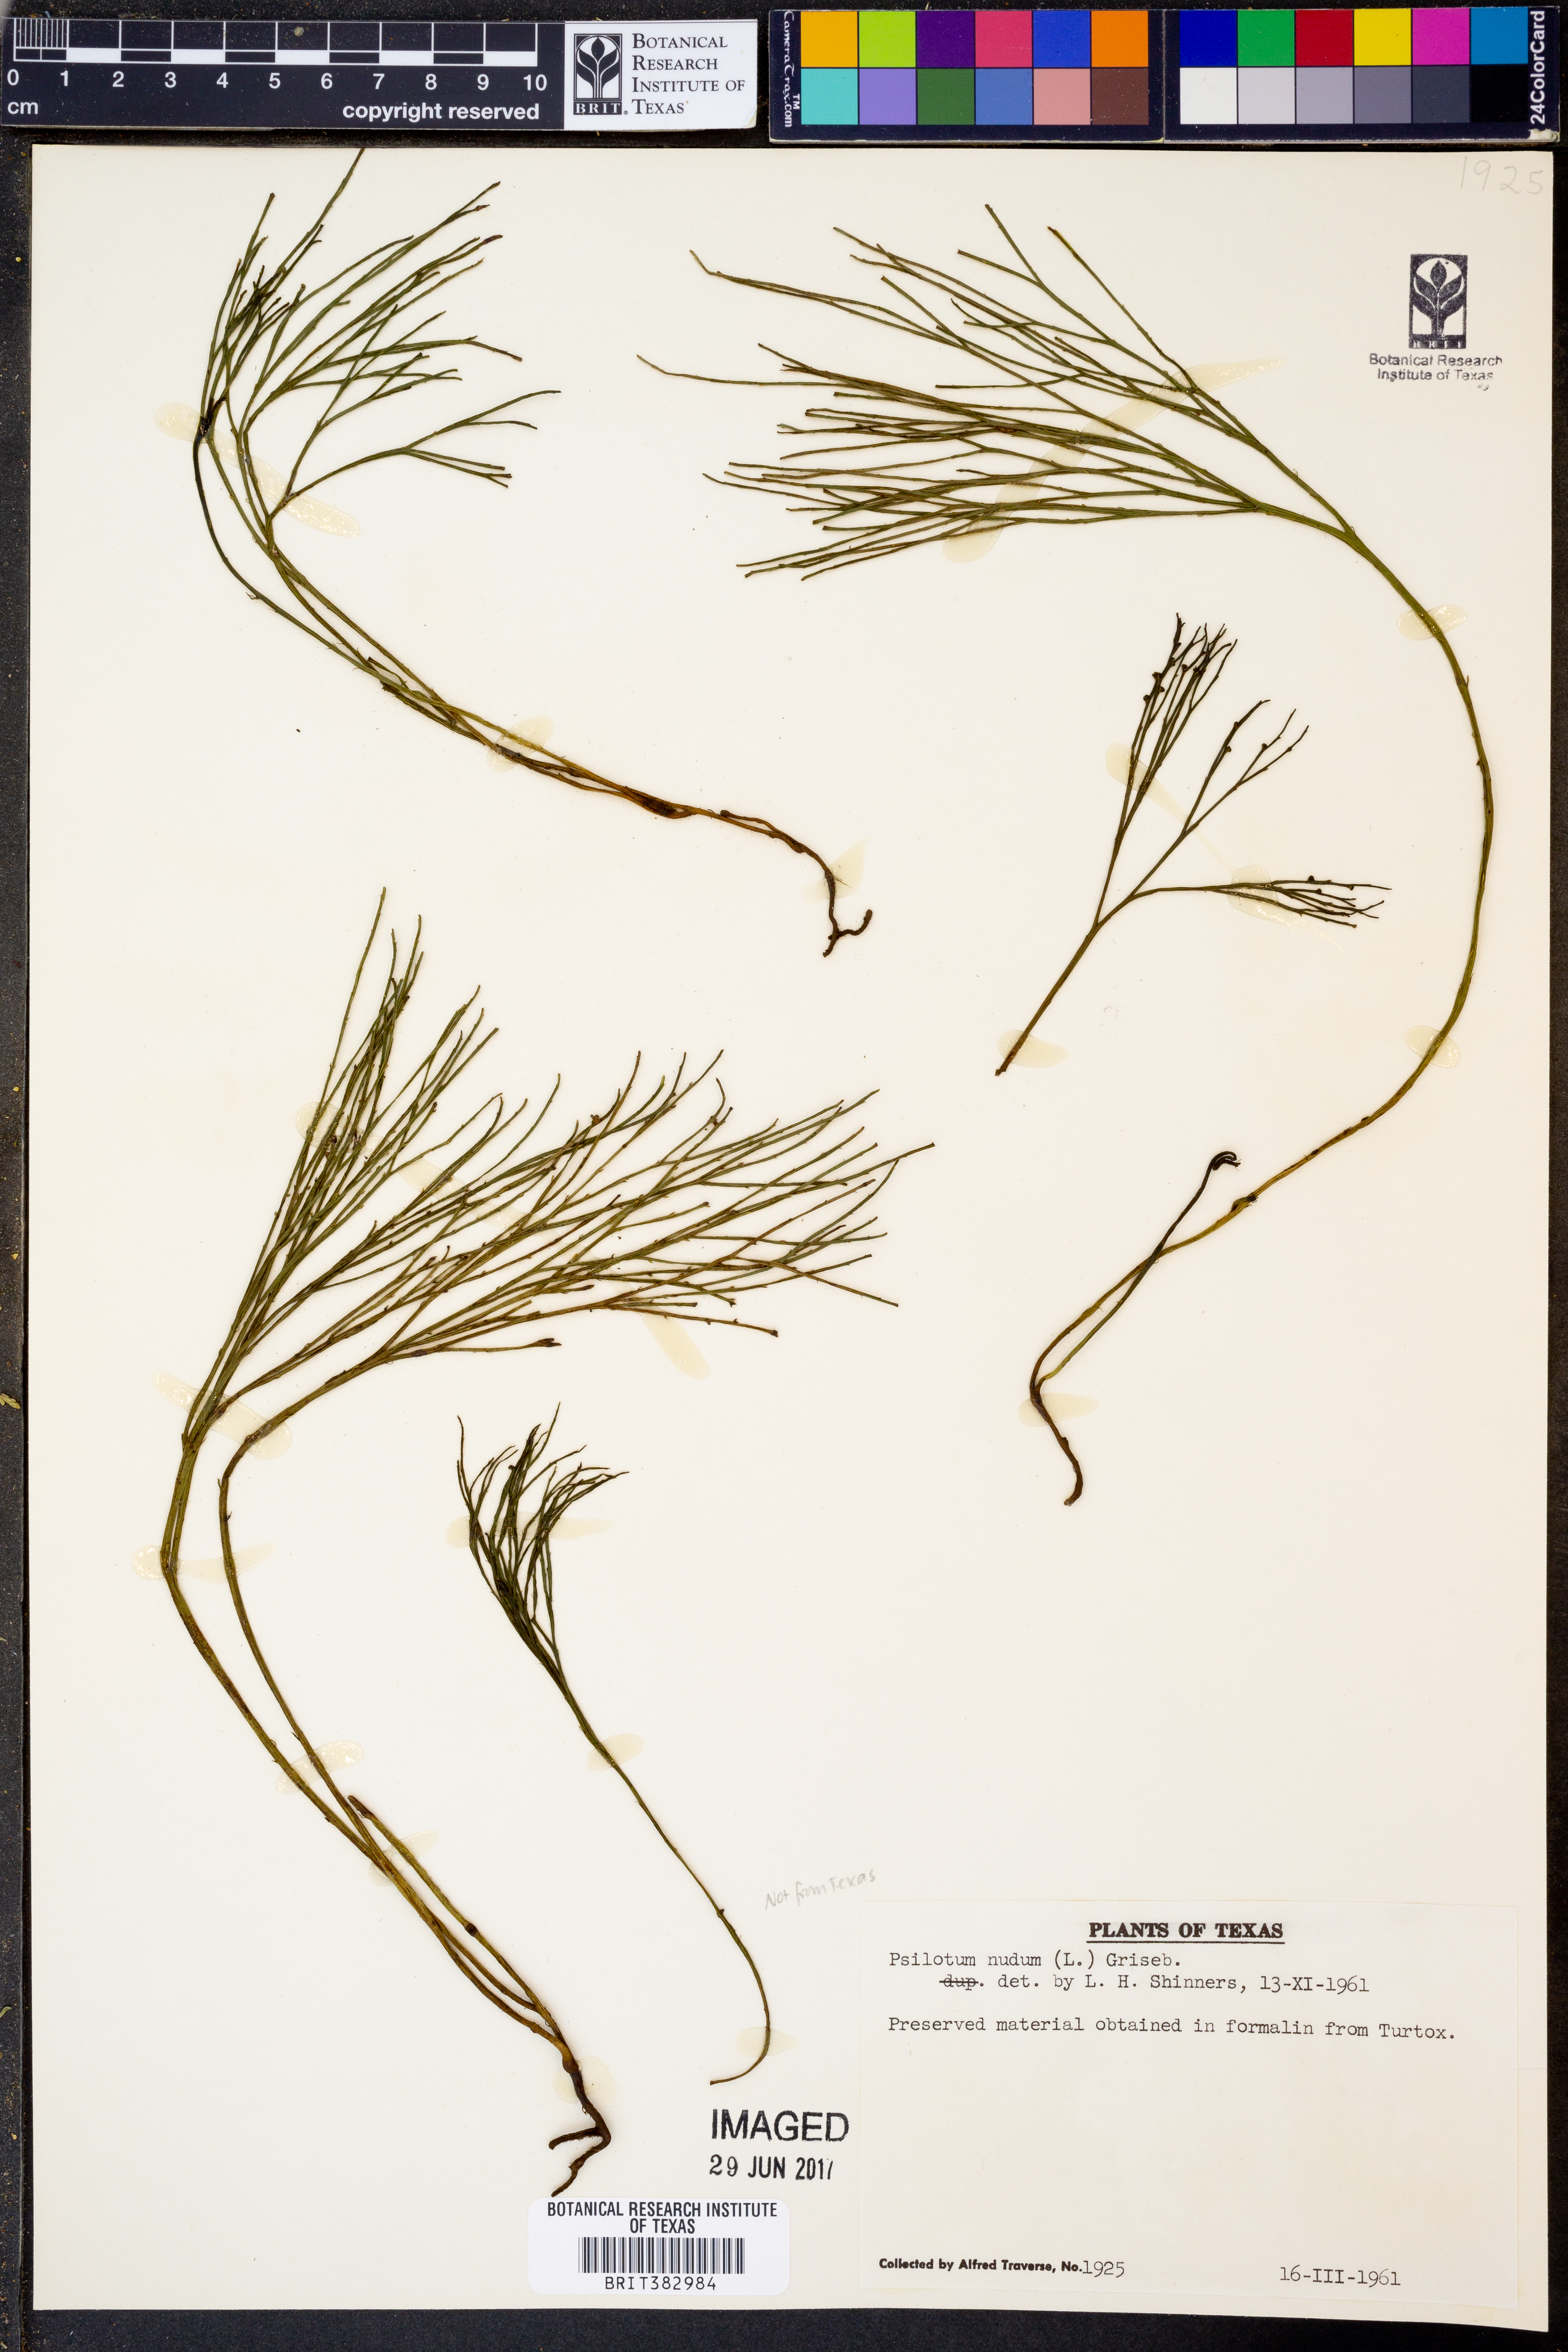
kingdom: Plantae
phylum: Tracheophyta
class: Polypodiopsida
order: Psilotales
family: Psilotaceae
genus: Psilotum
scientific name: Psilotum nudum
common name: Skeleton fork fern
